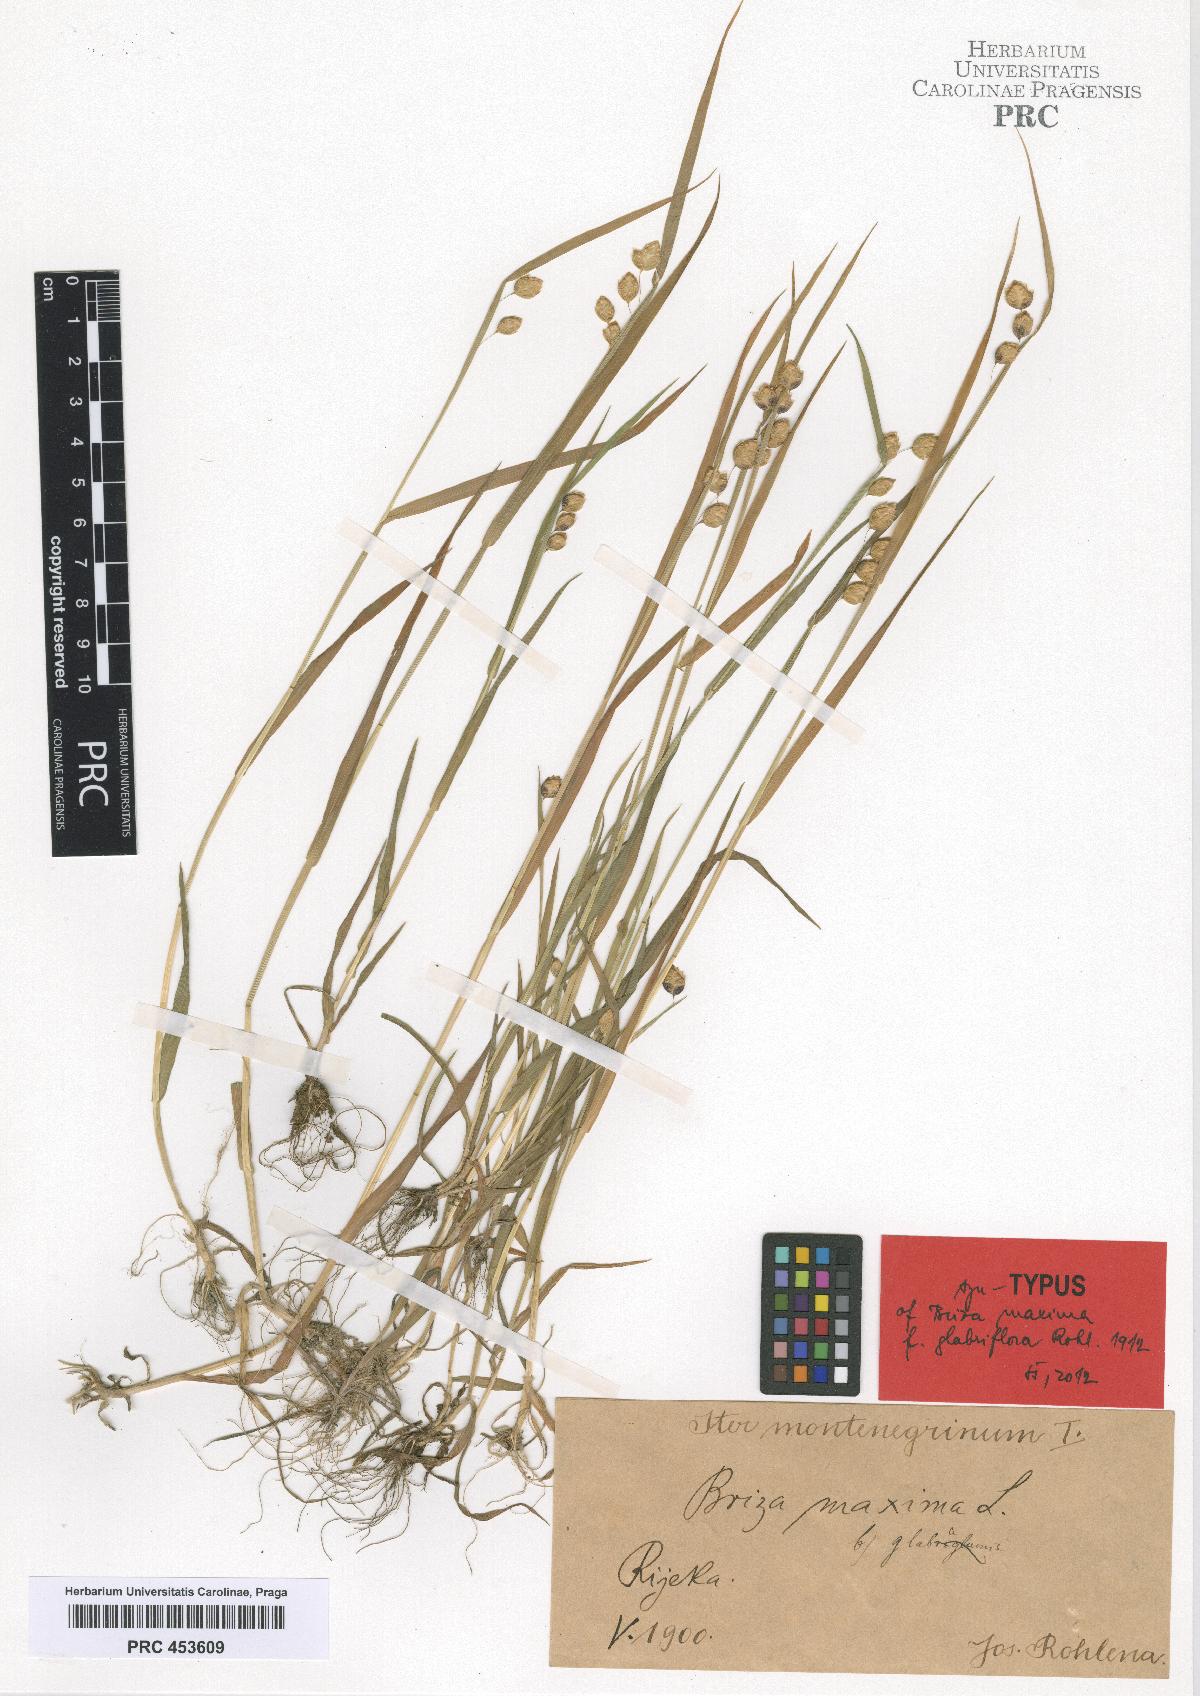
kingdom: Plantae
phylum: Tracheophyta
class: Liliopsida
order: Poales
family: Poaceae
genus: Briza
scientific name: Briza maxima
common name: Big quakinggrass
